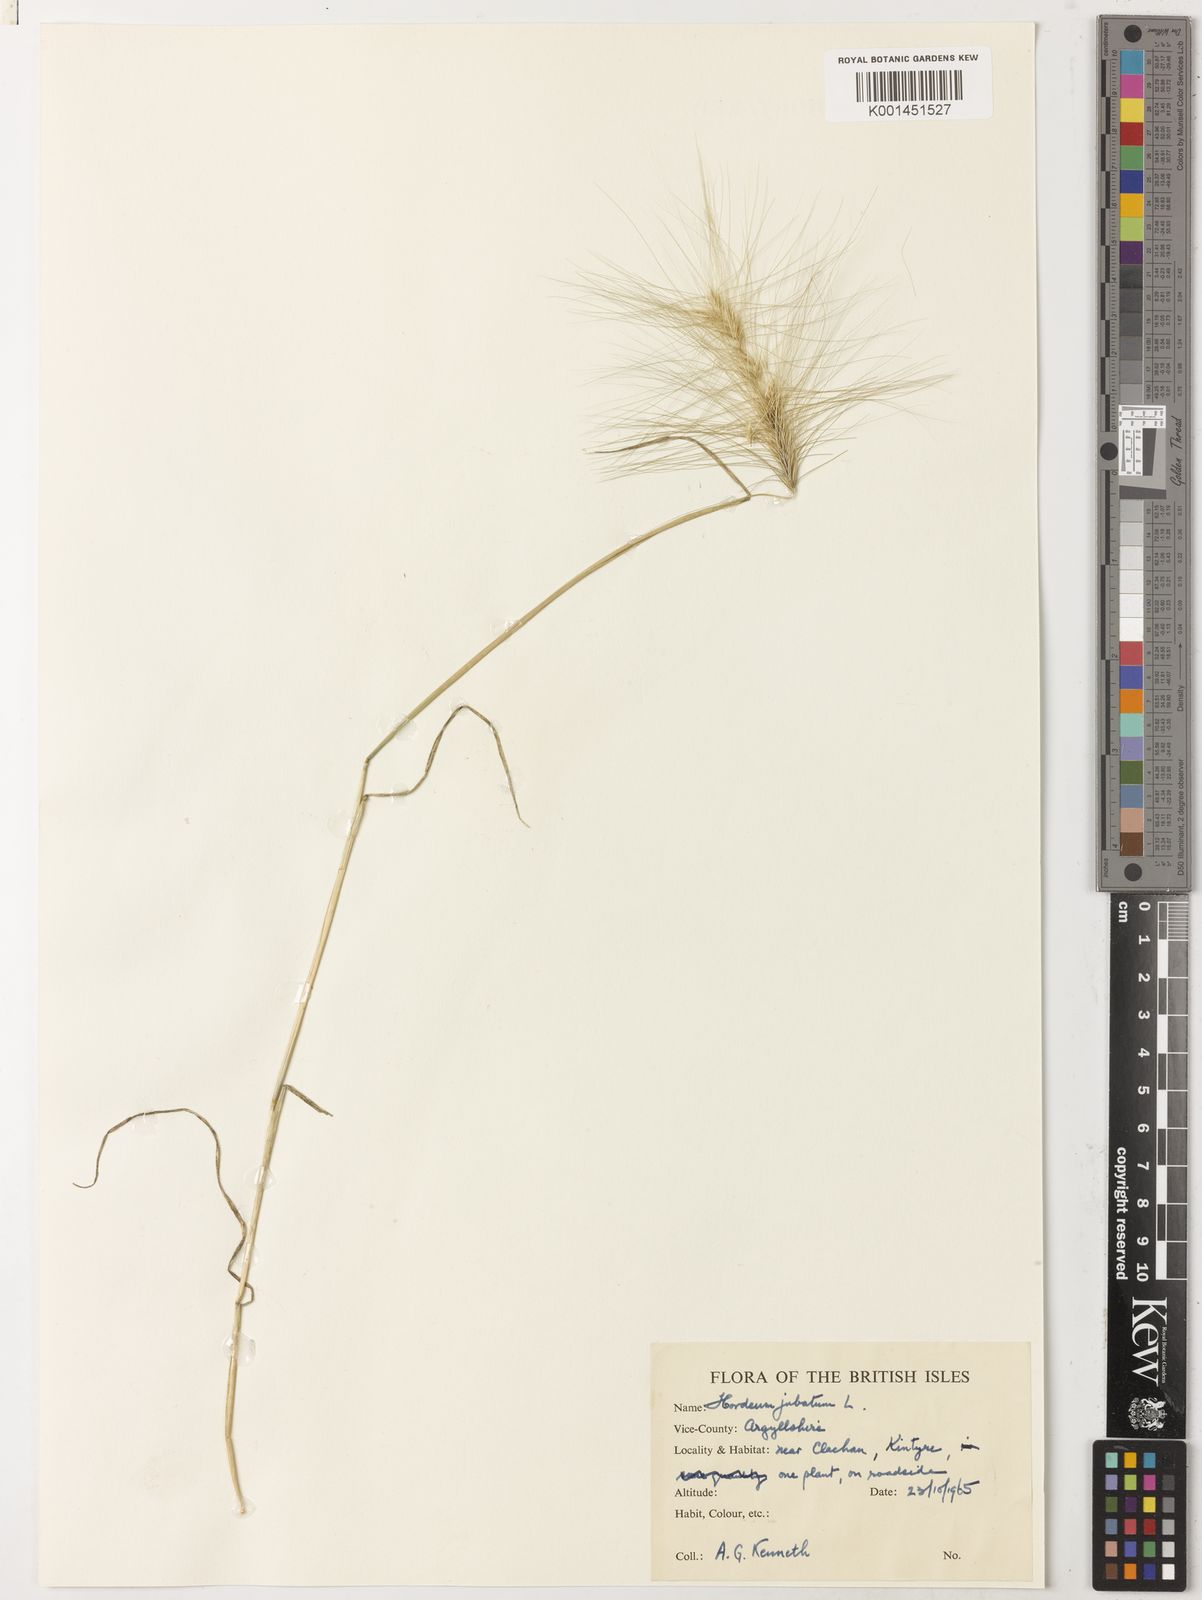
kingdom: Plantae
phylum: Tracheophyta
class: Liliopsida
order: Poales
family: Poaceae
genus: Hordeum
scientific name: Hordeum jubatum
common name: Foxtail barley
